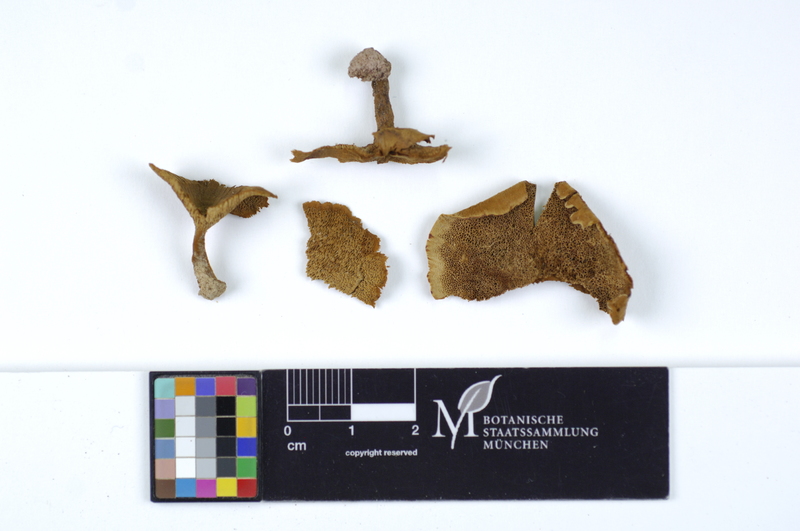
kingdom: Fungi
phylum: Basidiomycota
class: Agaricomycetes
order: Hymenochaetales
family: Hymenochaetaceae
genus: Coltricia
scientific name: Coltricia perennis
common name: Tiger's eye
